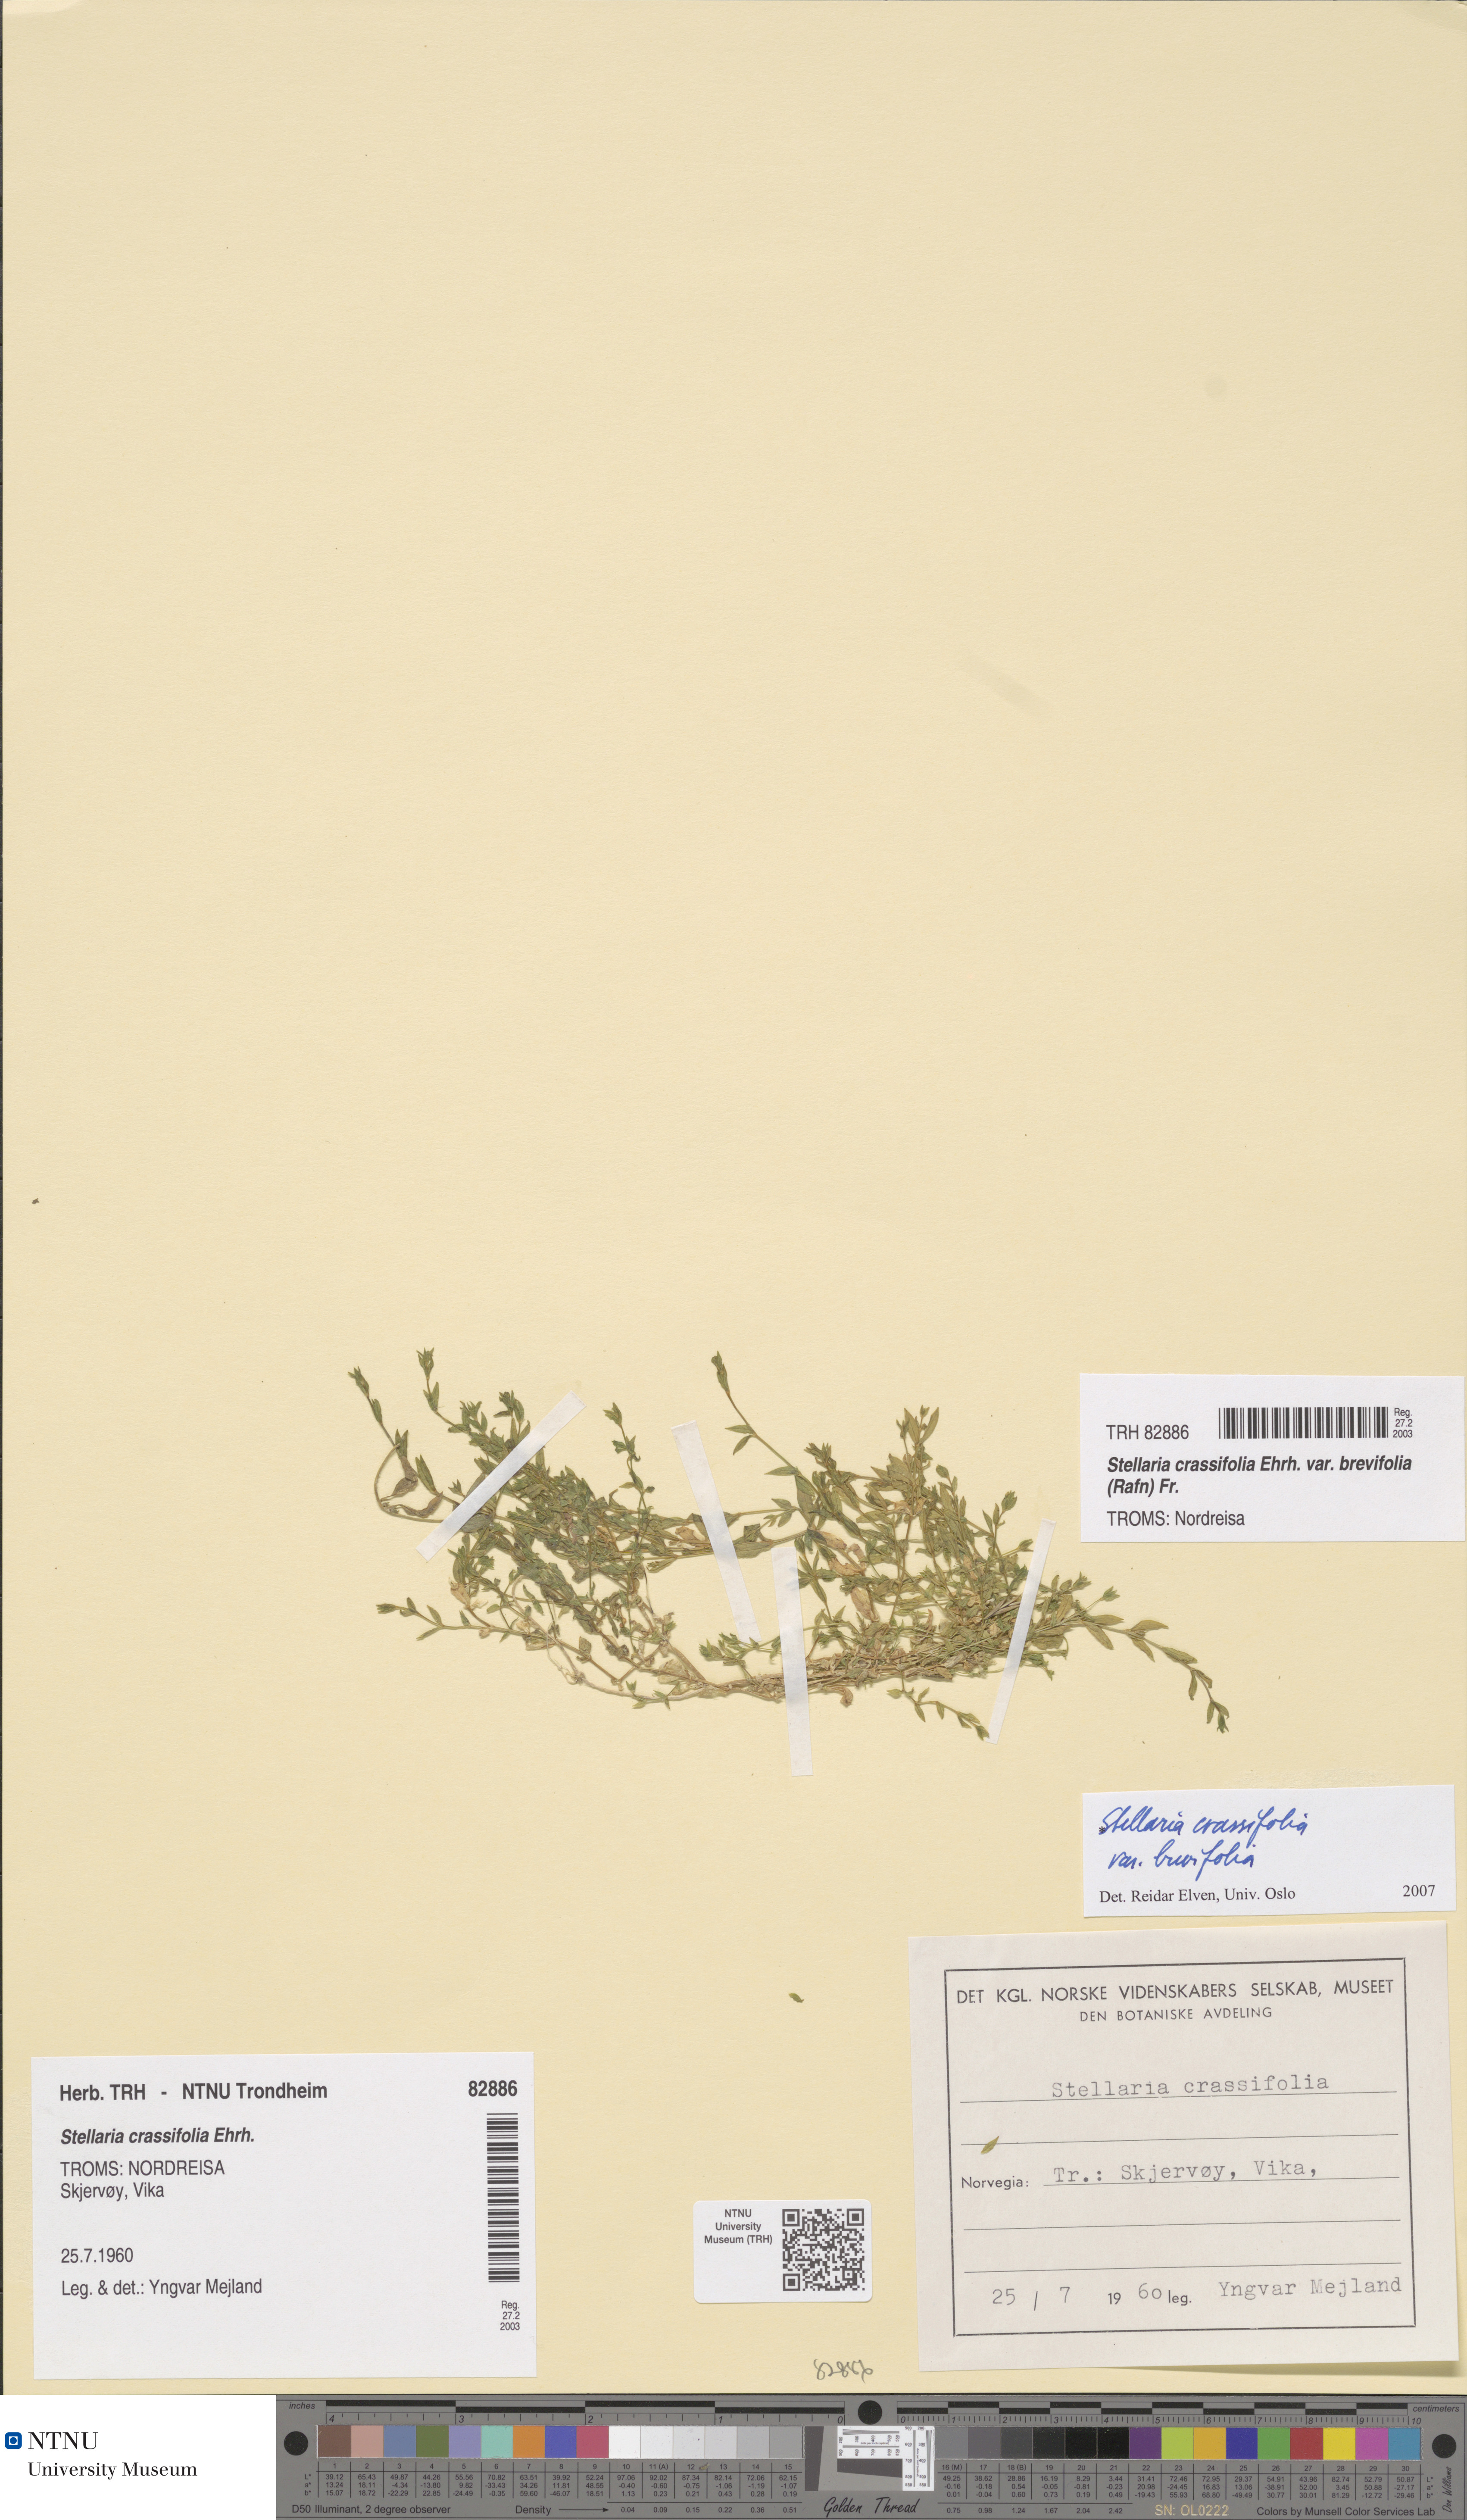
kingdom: Plantae
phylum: Tracheophyta
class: Magnoliopsida
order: Caryophyllales
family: Caryophyllaceae
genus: Stellaria
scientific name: Stellaria crassifolia
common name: Fleshy starwort
